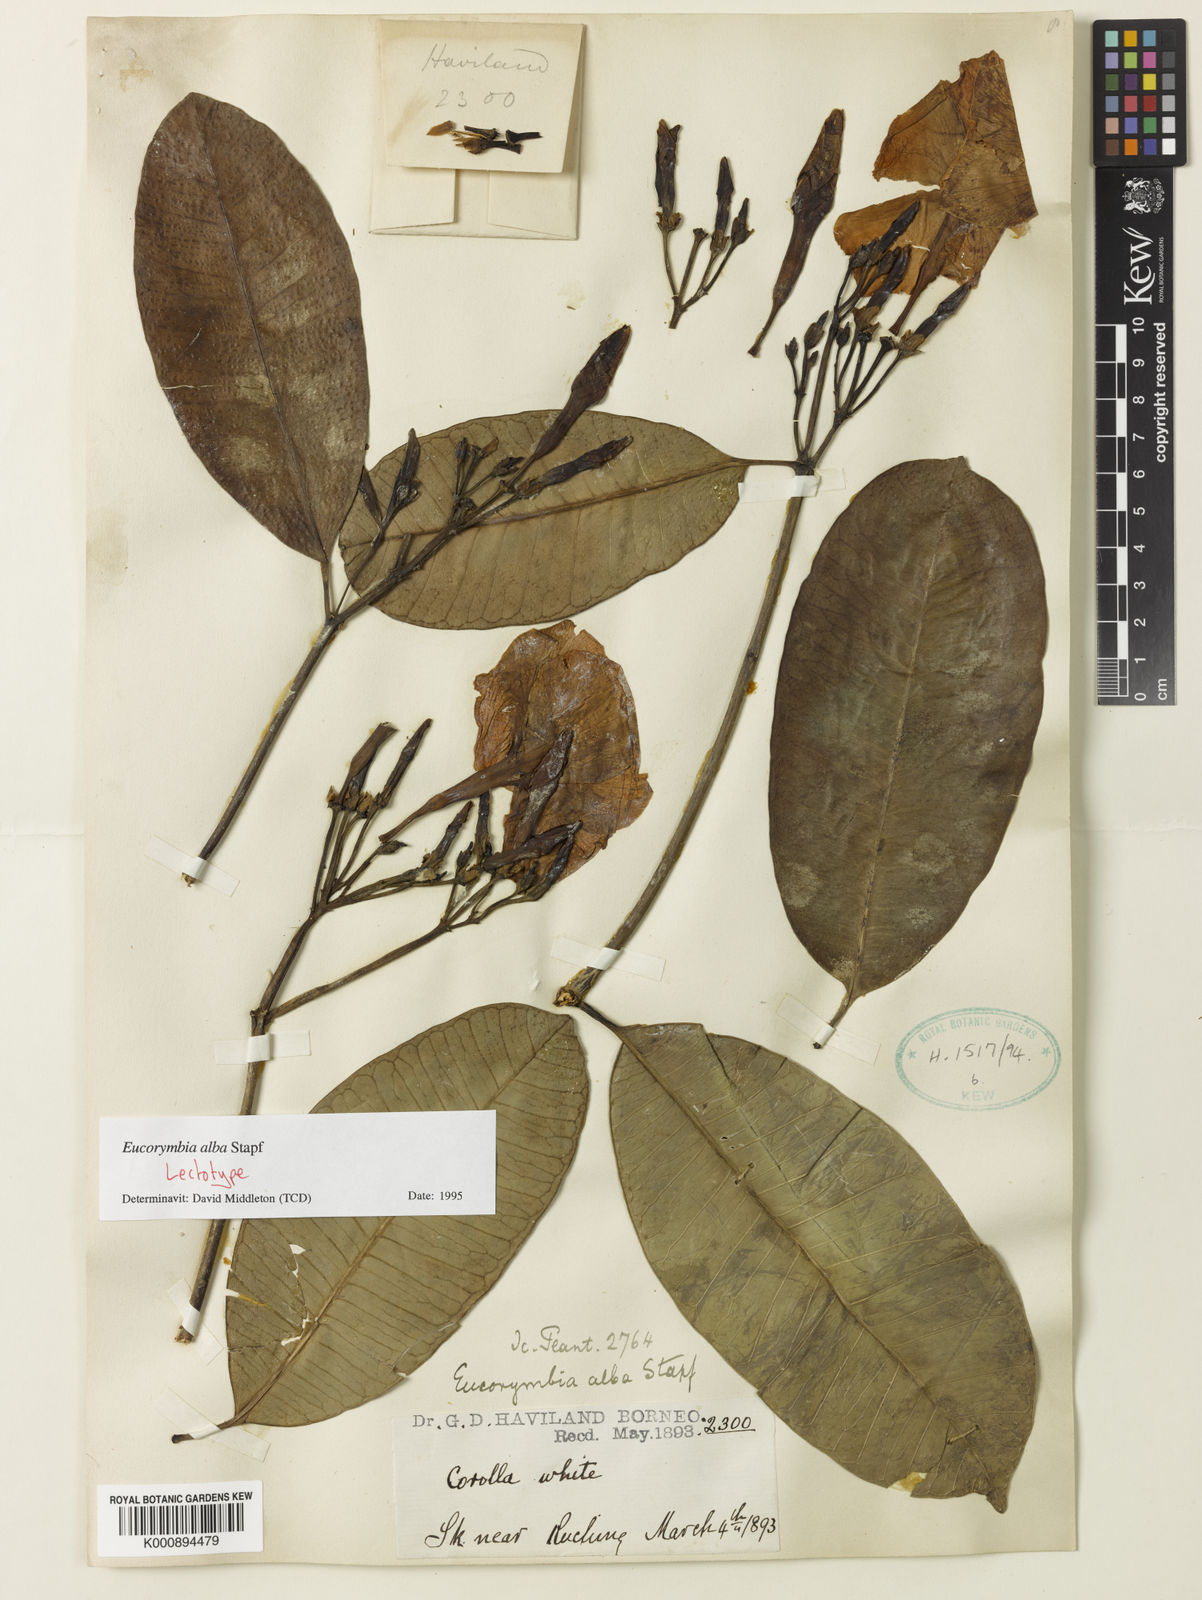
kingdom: Plantae
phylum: Tracheophyta
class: Magnoliopsida
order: Gentianales
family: Apocynaceae
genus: Eucorymbia
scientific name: Eucorymbia alba
